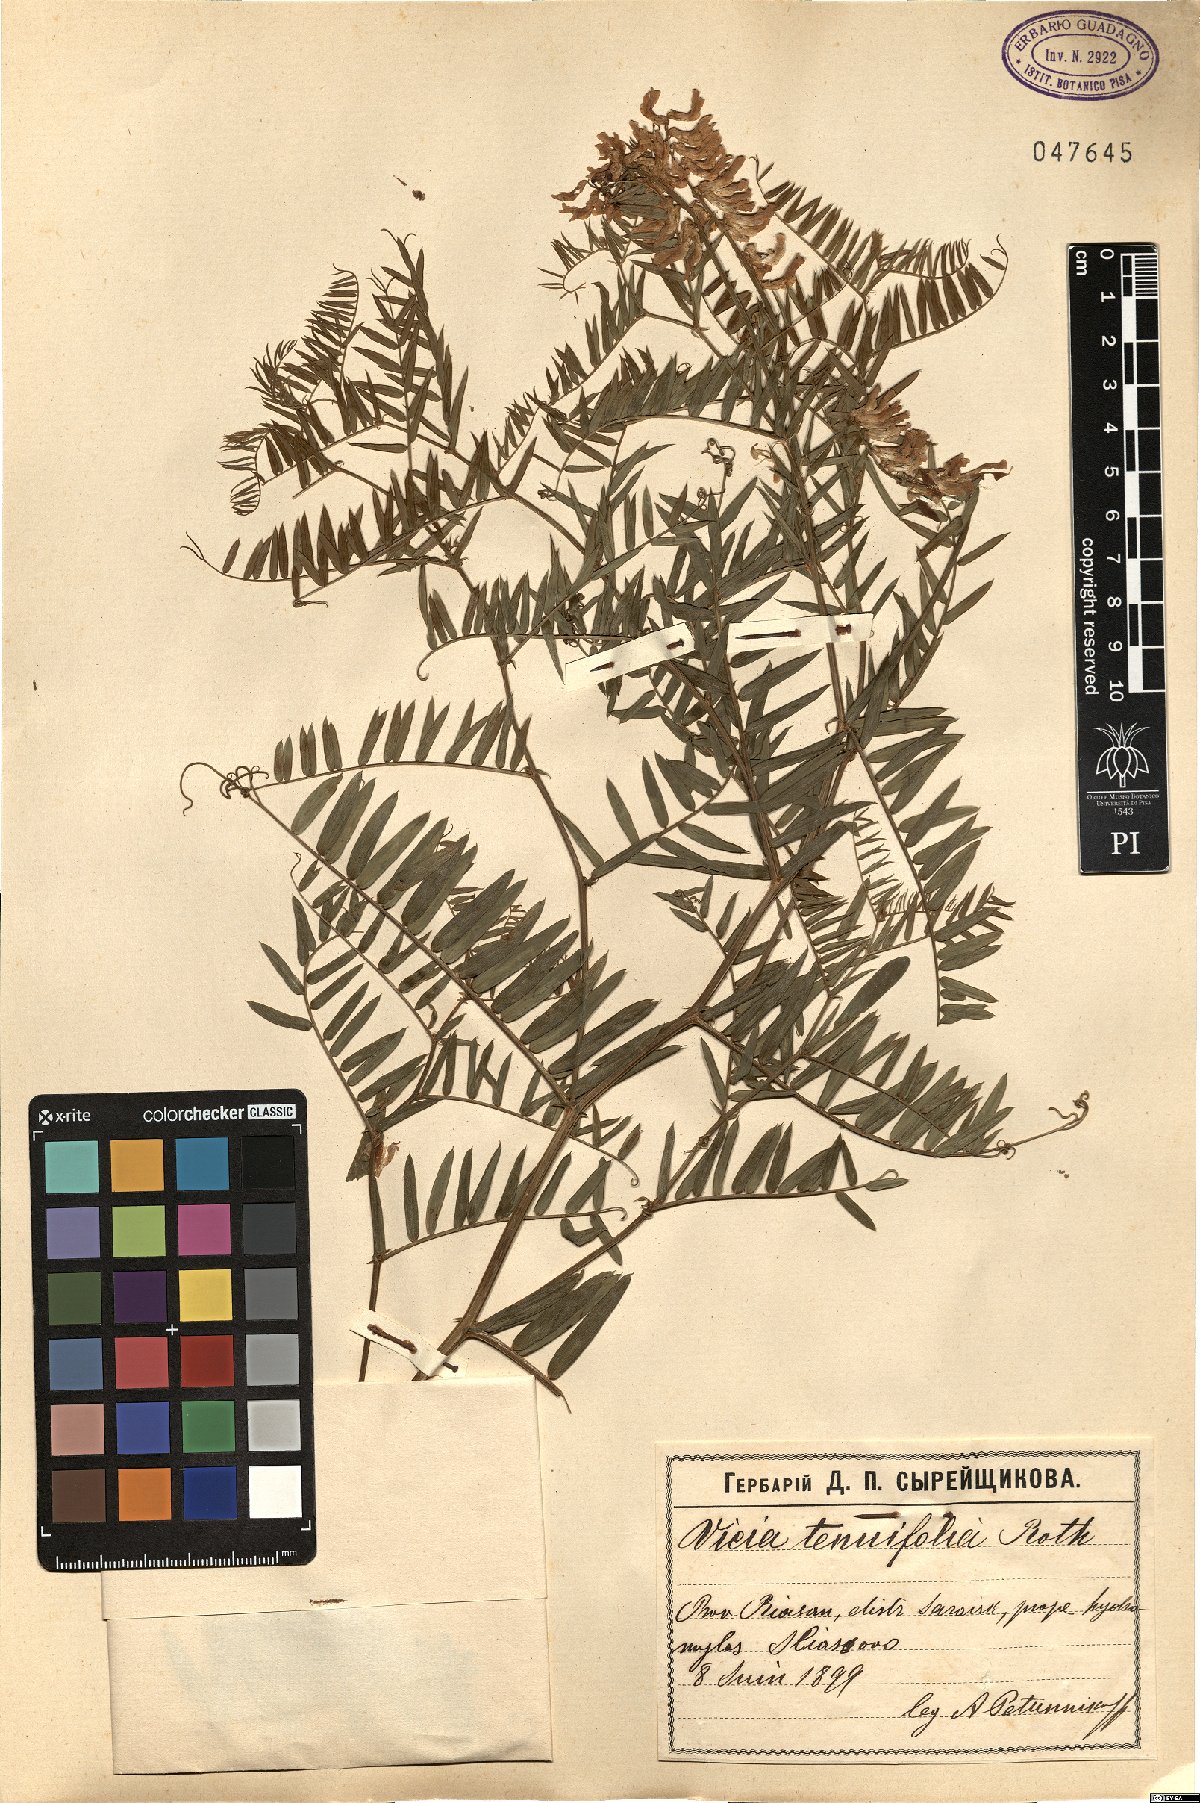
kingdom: Plantae
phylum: Tracheophyta
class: Magnoliopsida
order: Fabales
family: Fabaceae
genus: Vicia
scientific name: Vicia tenuifolia
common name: Fine-leaved vetch
